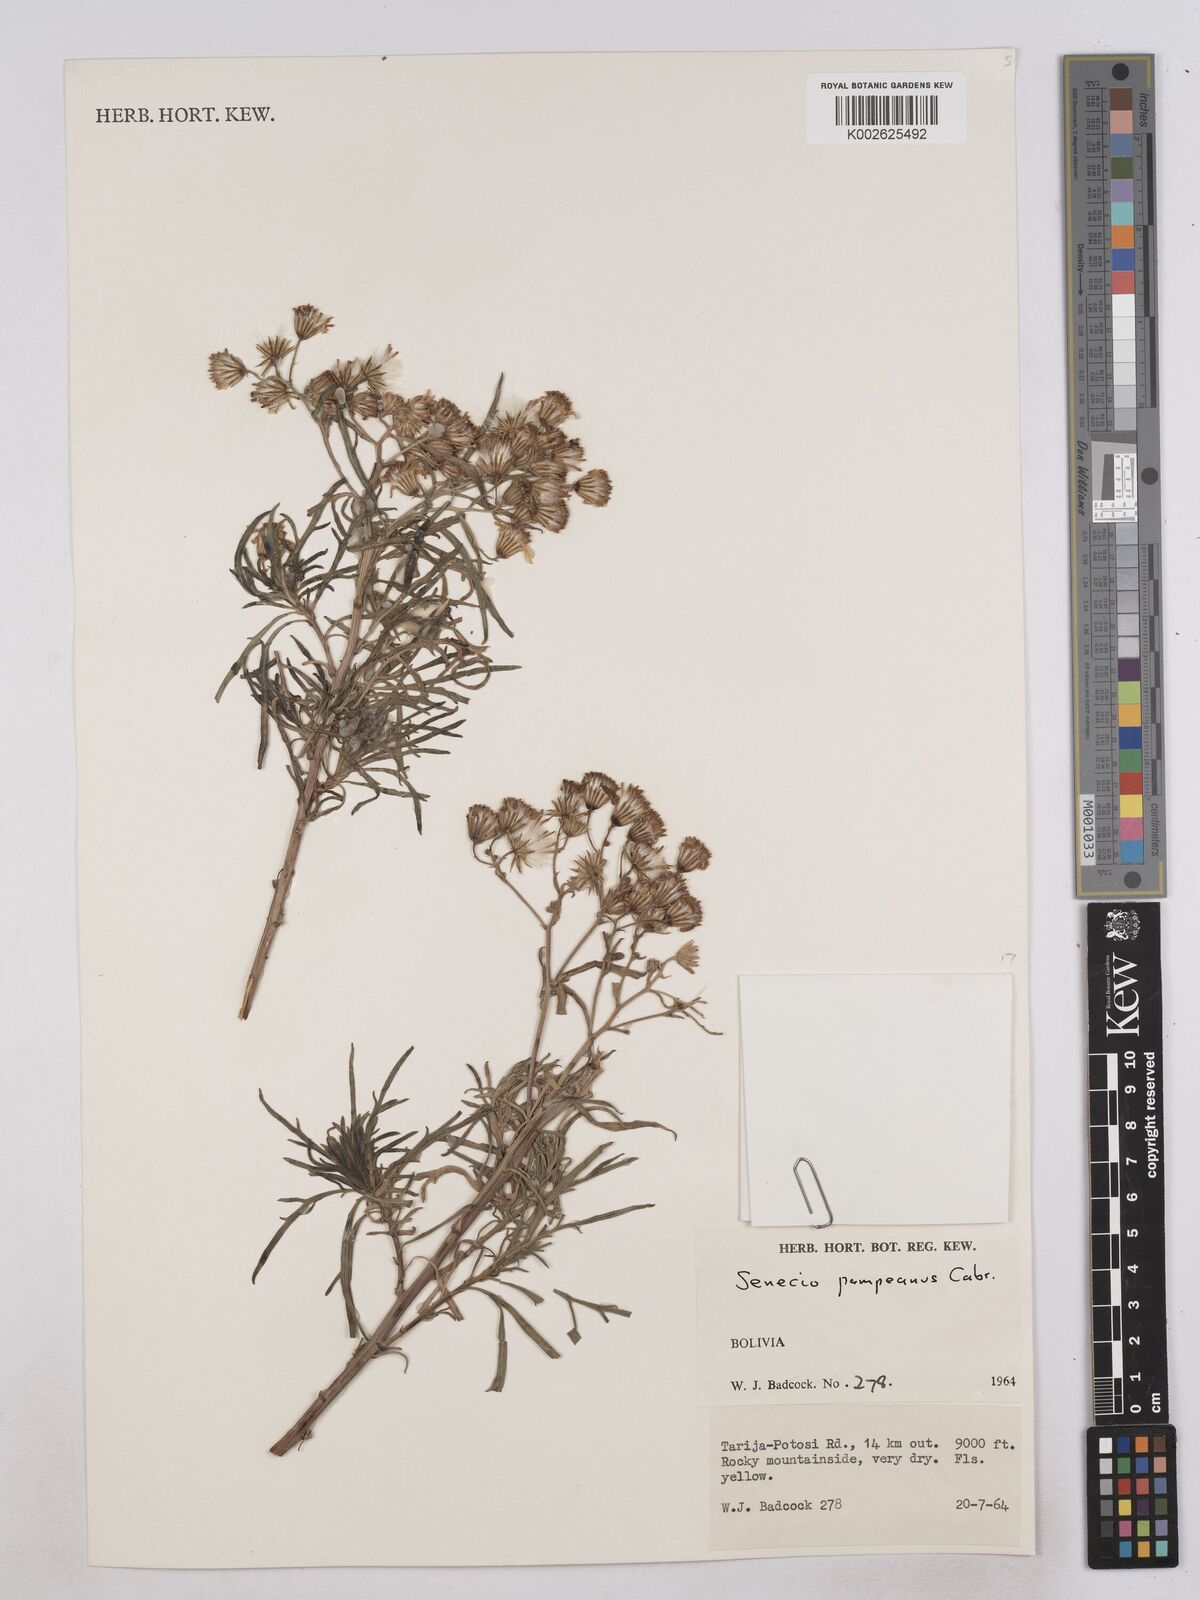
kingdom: Plantae
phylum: Tracheophyta
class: Magnoliopsida
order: Asterales
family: Asteraceae
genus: Senecio
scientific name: Senecio pampeanus
